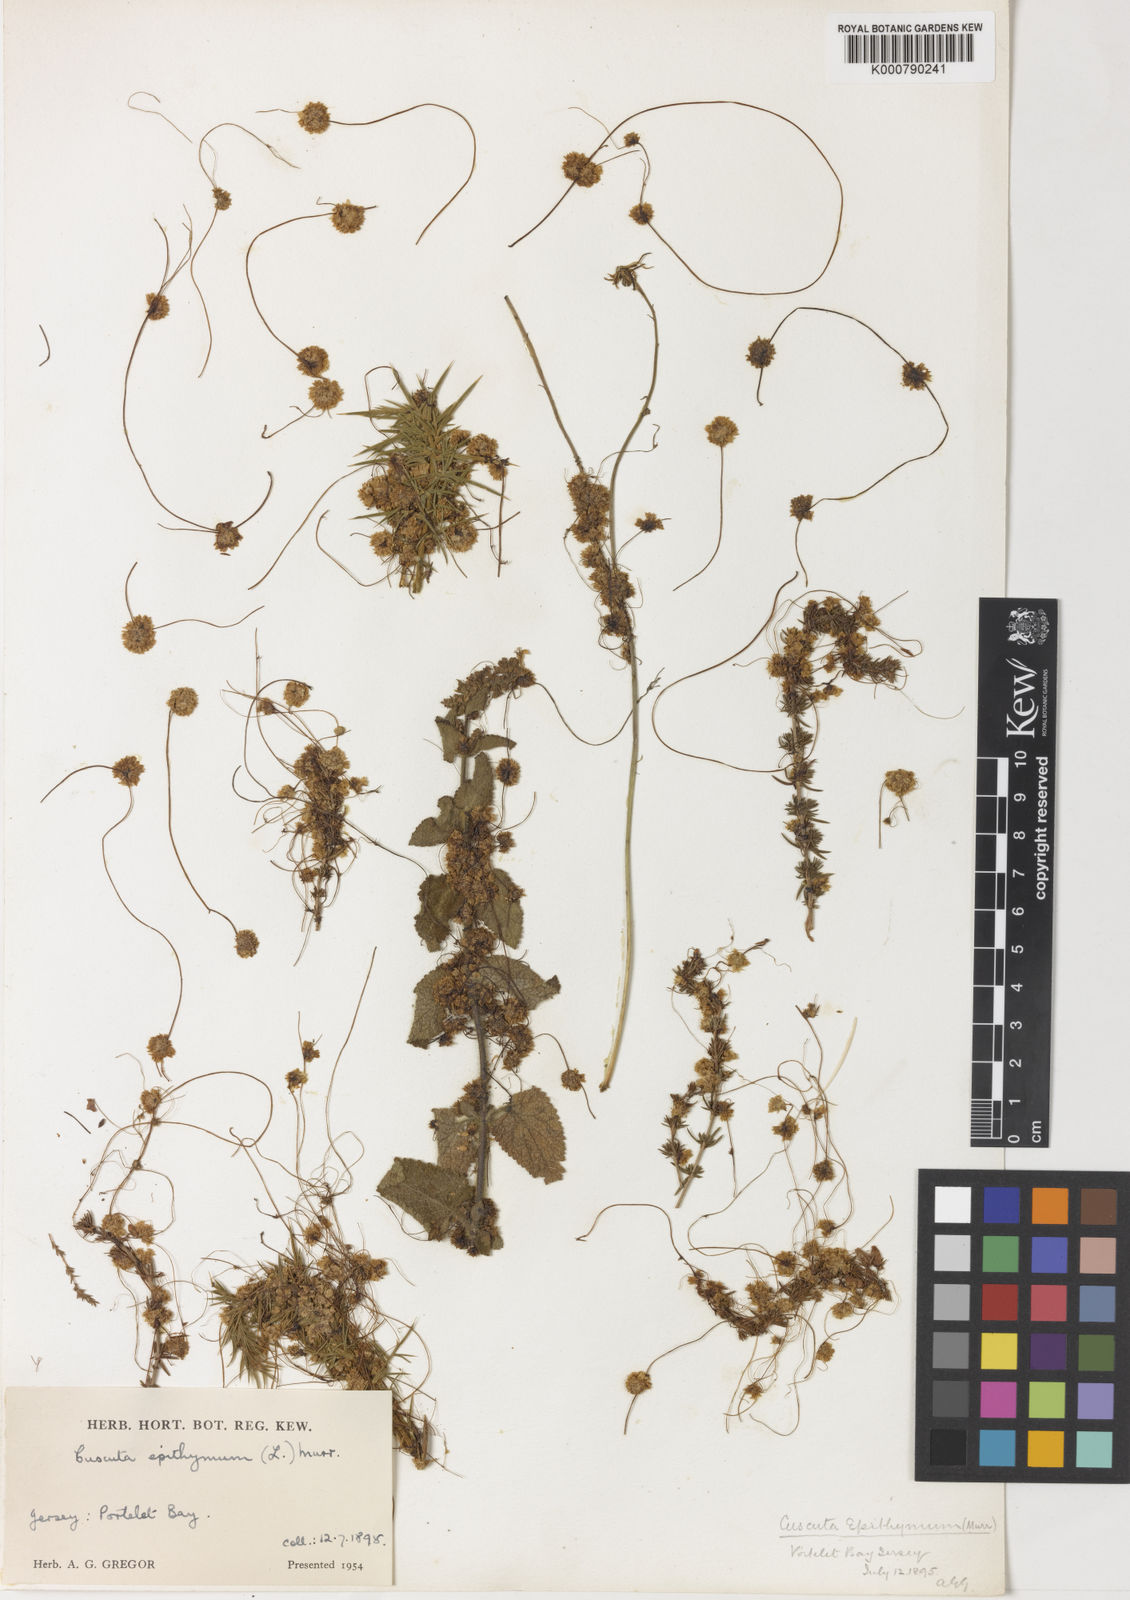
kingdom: Plantae
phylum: Tracheophyta
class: Magnoliopsida
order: Solanales
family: Convolvulaceae
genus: Cuscuta
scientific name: Cuscuta epithymum
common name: Clover dodder
